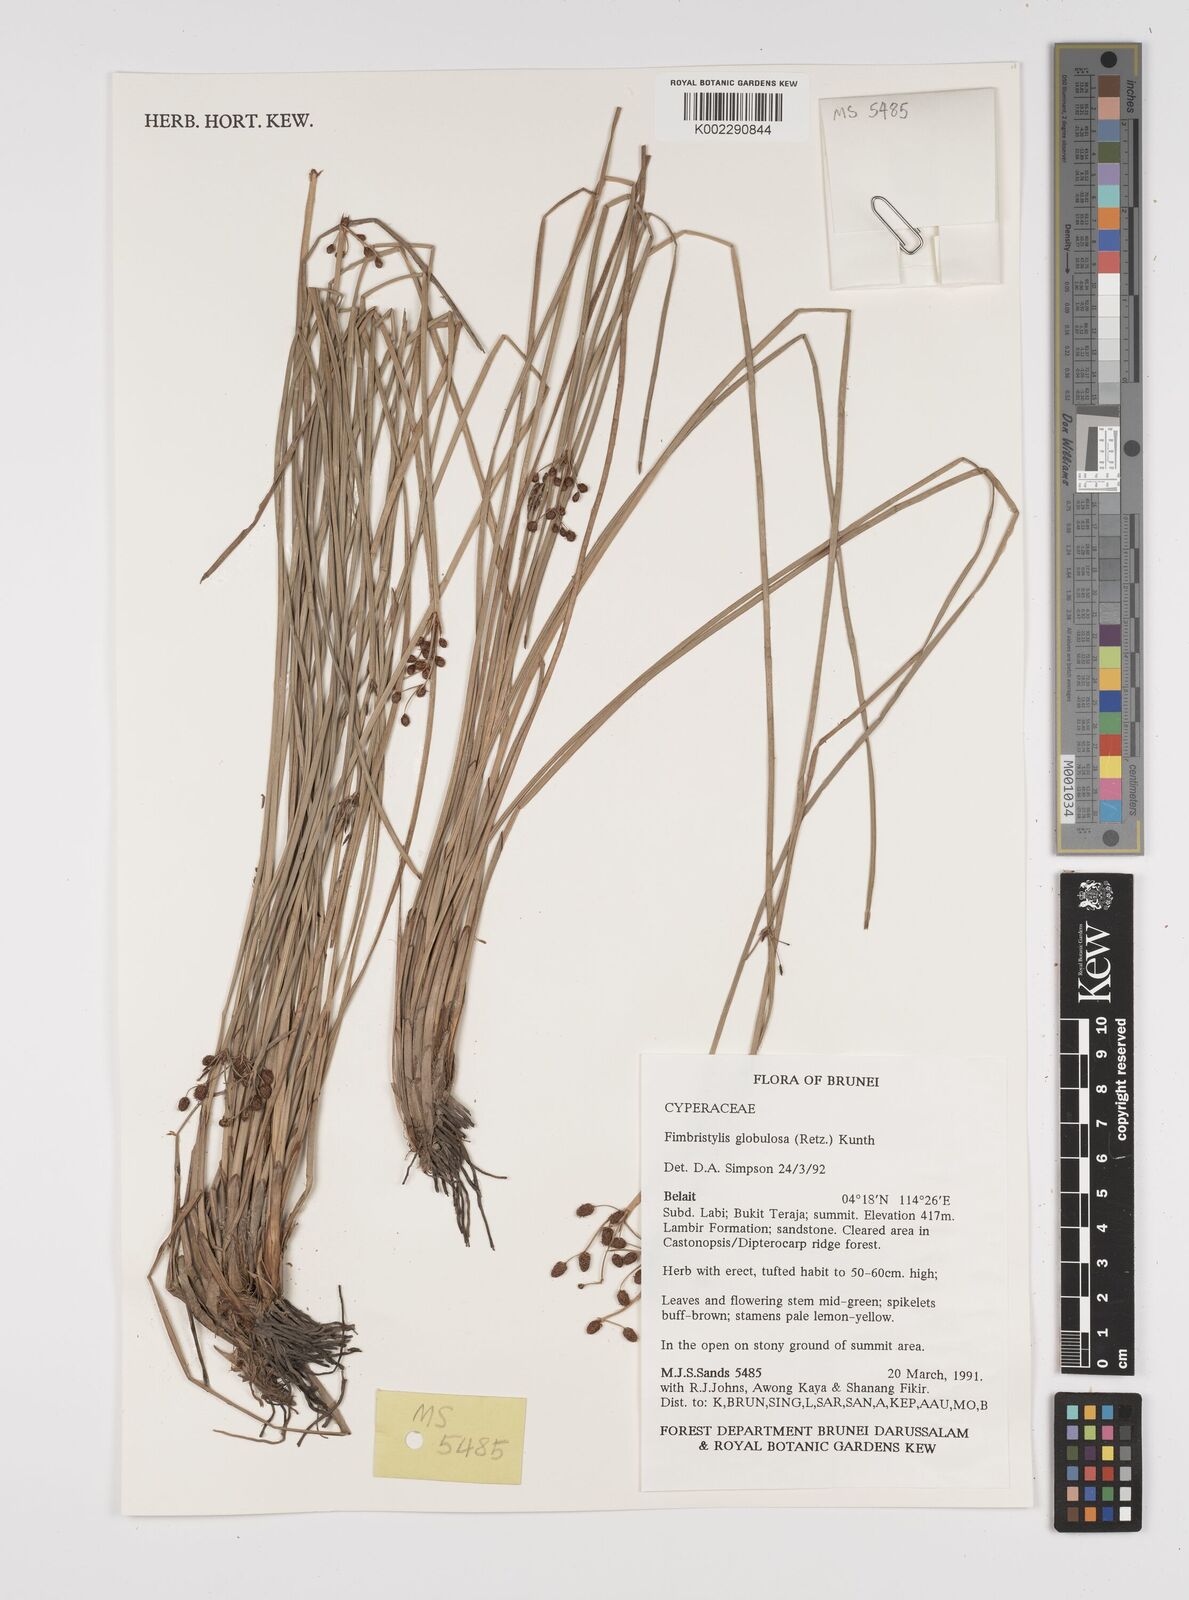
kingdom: Plantae
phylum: Tracheophyta
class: Liliopsida
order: Poales
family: Cyperaceae
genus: Fimbristylis
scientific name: Fimbristylis umbellaris
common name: Globular fimbristylis
